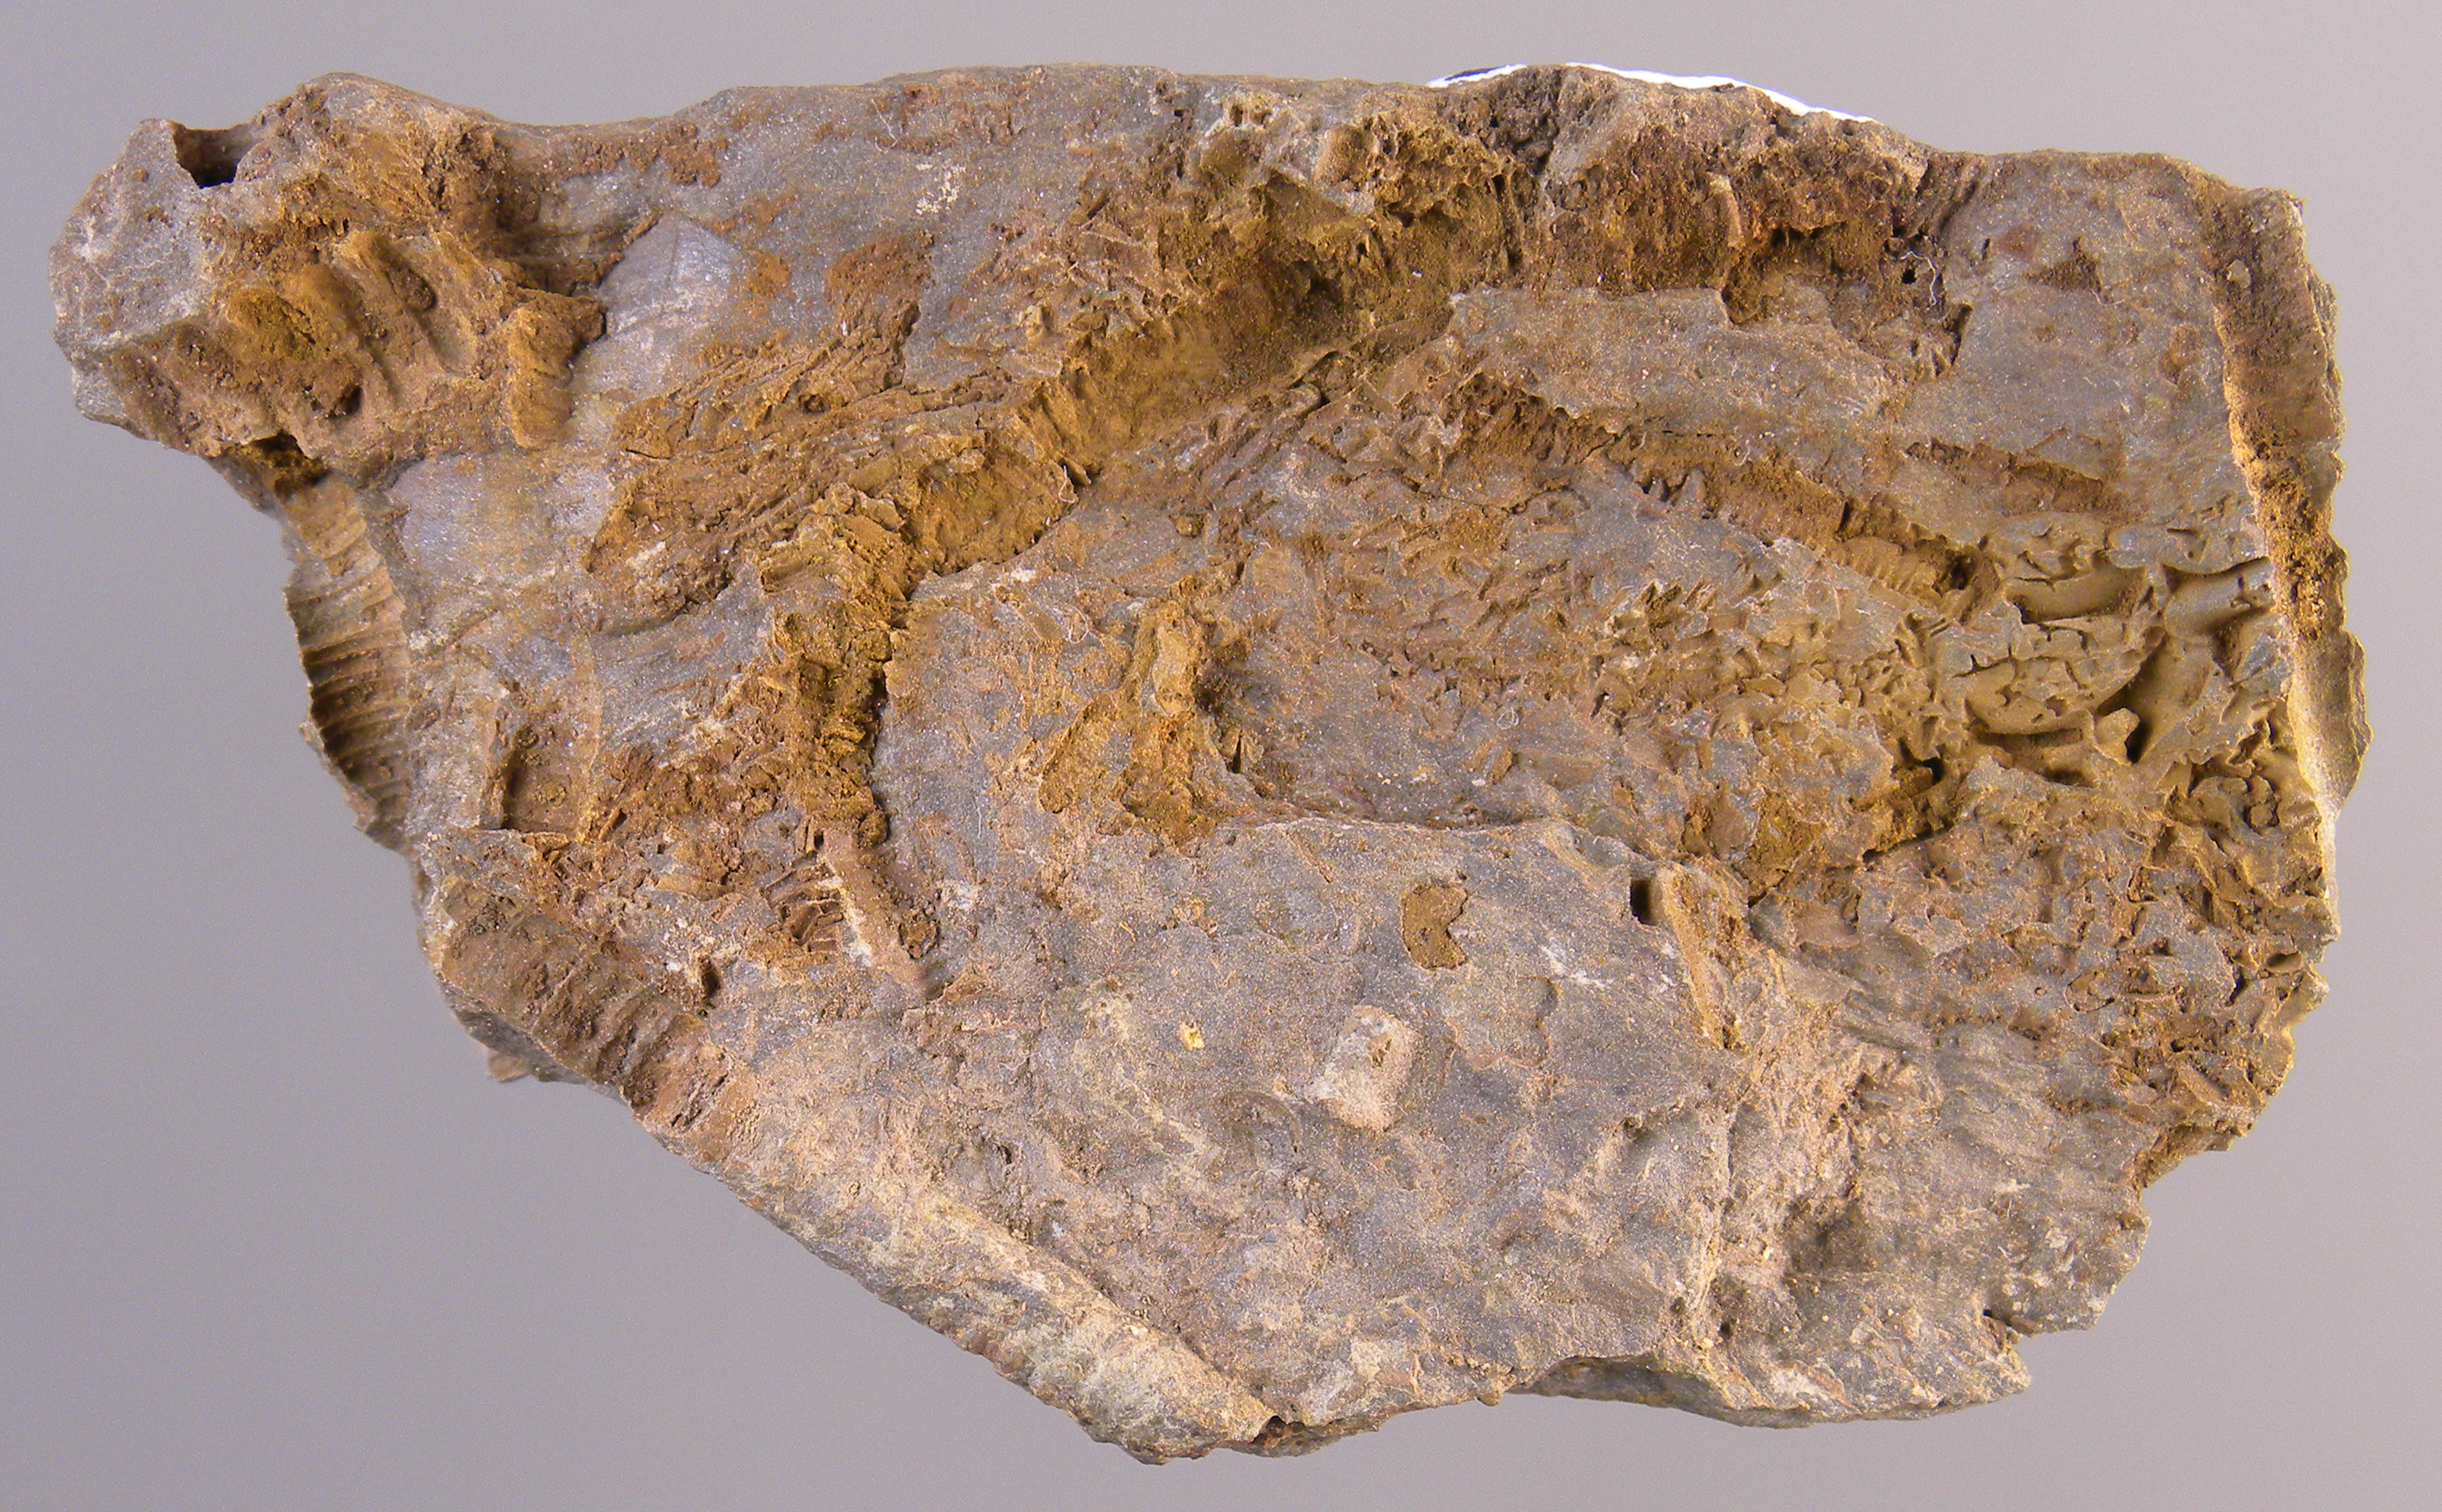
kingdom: Animalia
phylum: Echinodermata
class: Crinoidea
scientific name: Crinoidea
